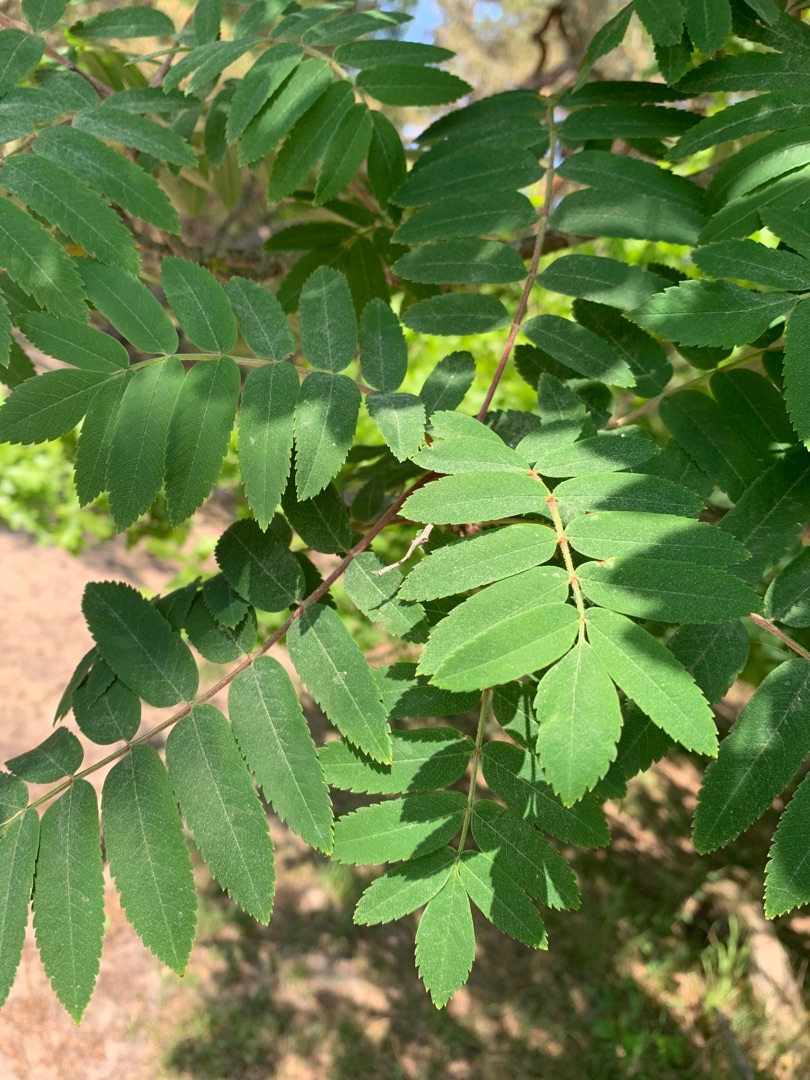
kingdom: Plantae
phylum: Tracheophyta
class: Magnoliopsida
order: Rosales
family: Rosaceae
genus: Sorbus
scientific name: Sorbus aucuparia
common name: Almindelig røn
